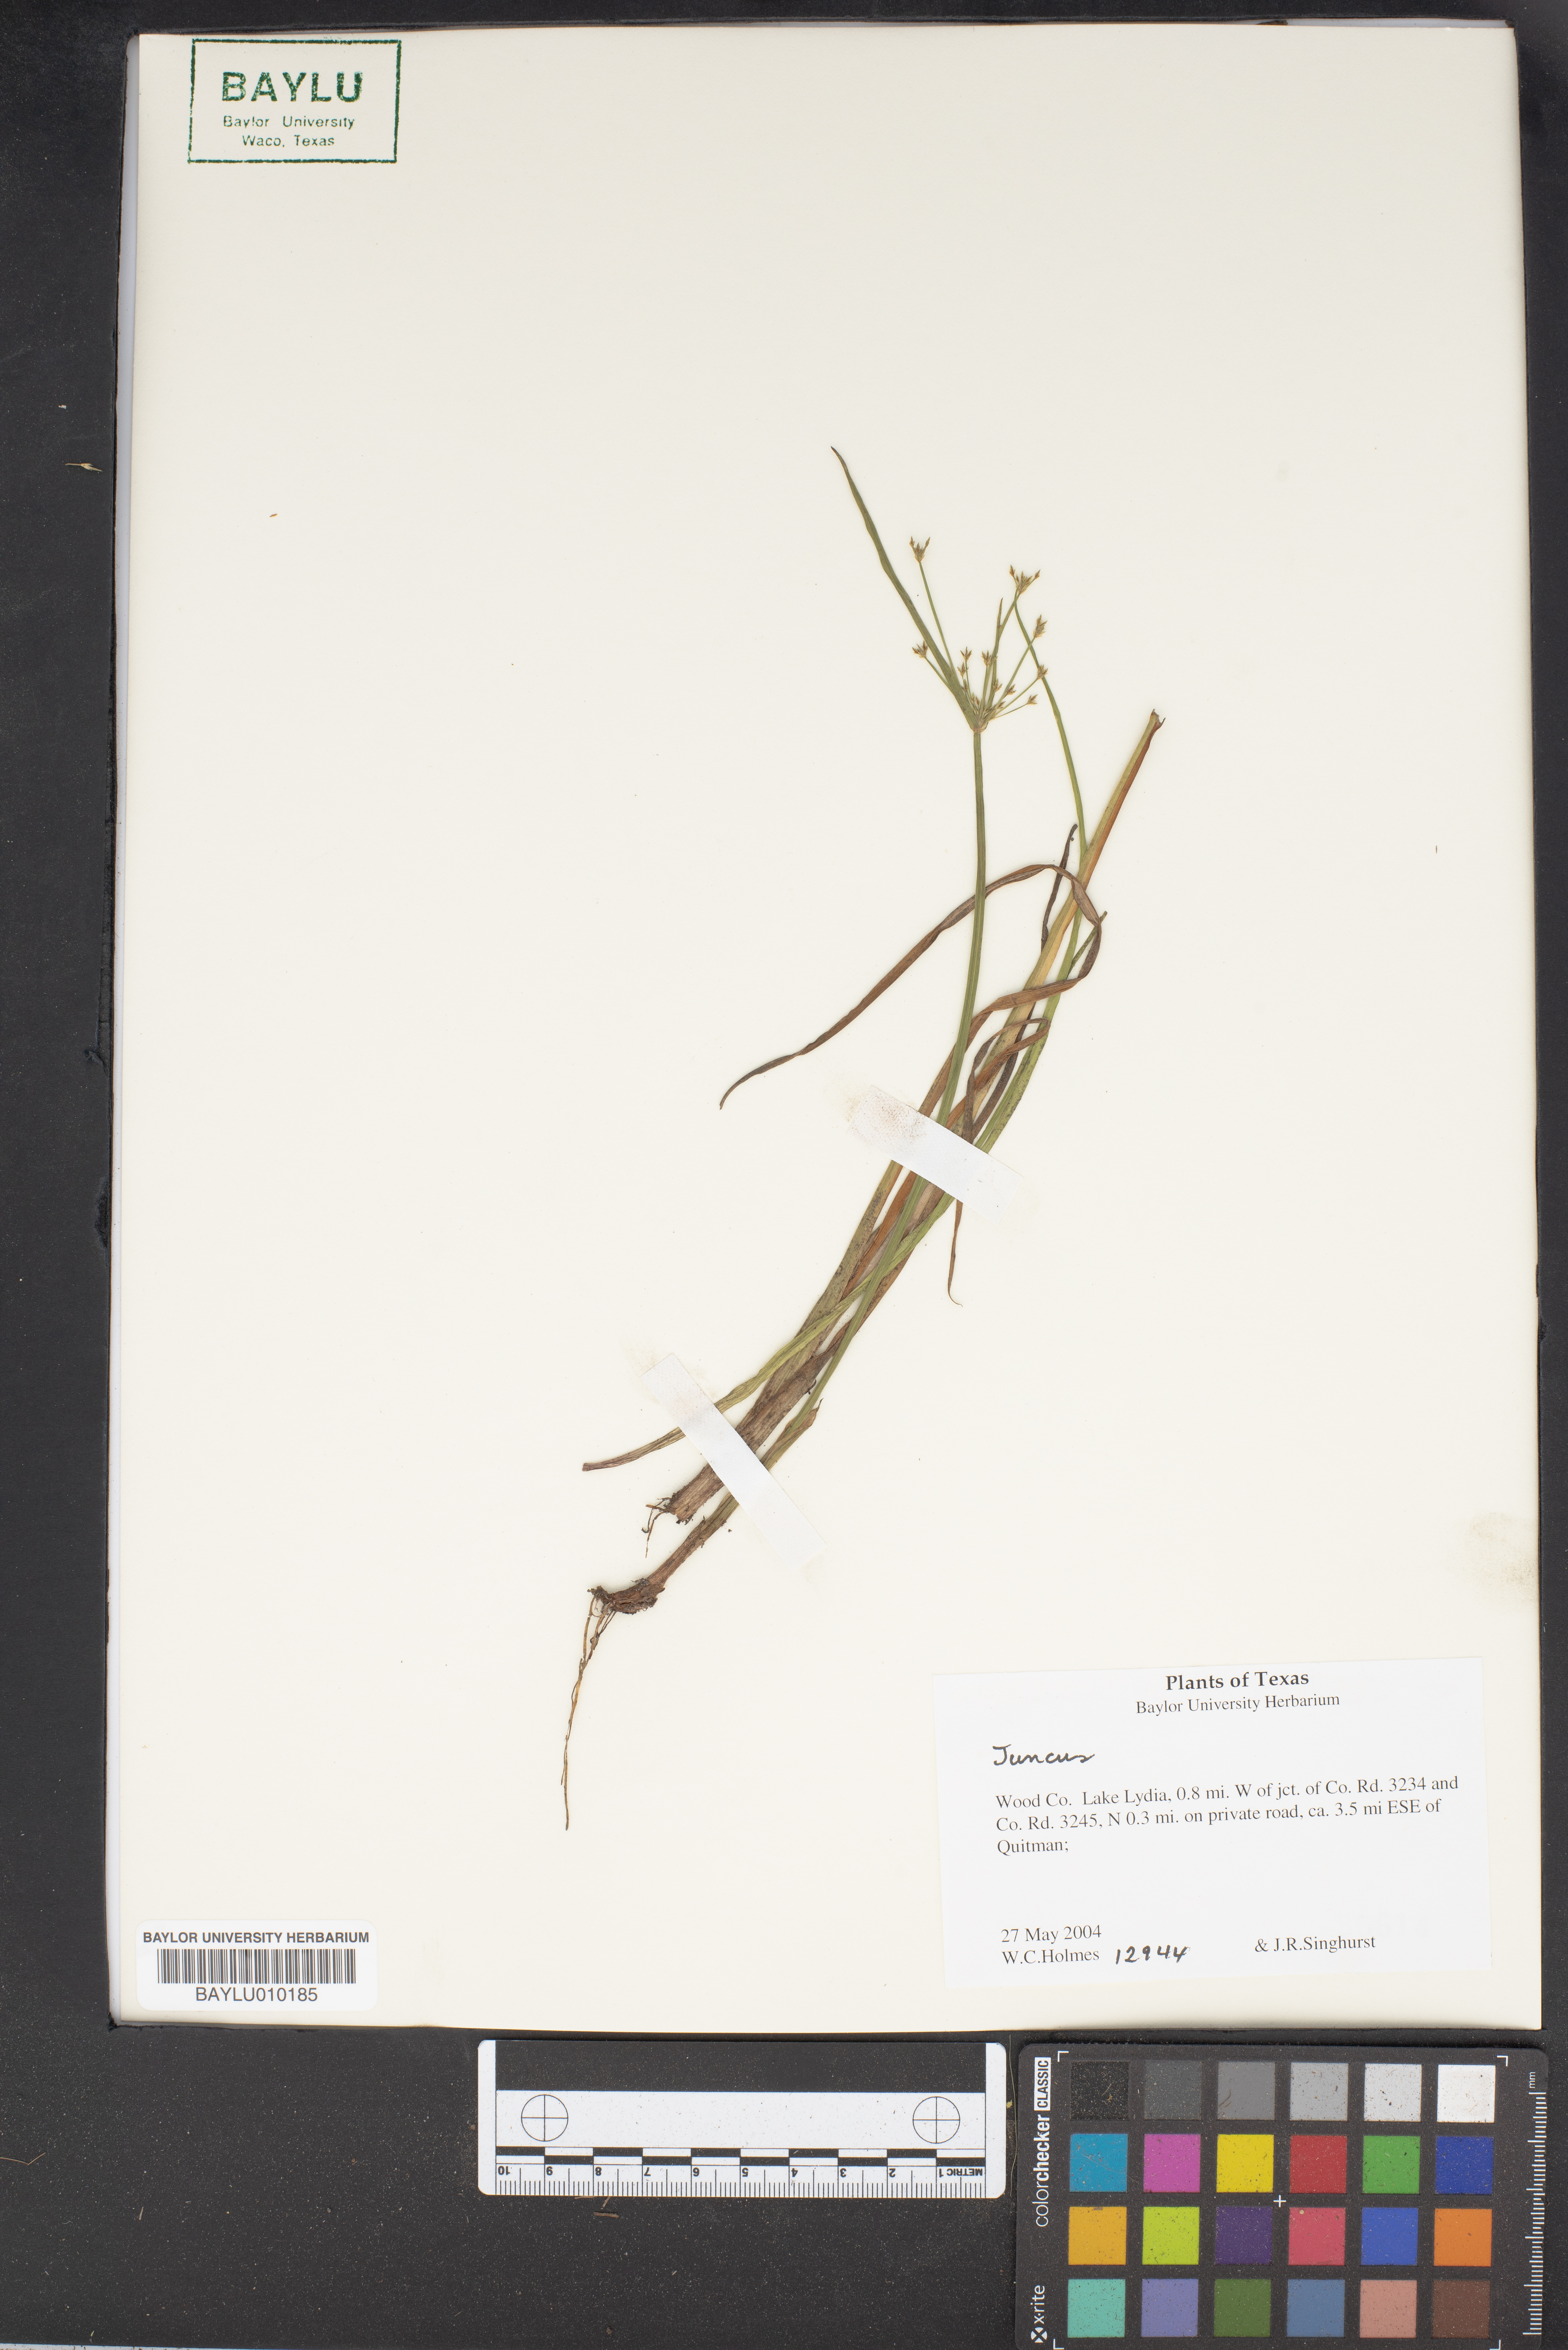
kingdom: Plantae
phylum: Tracheophyta
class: Liliopsida
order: Poales
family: Juncaceae
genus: Juncus
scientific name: Juncus
